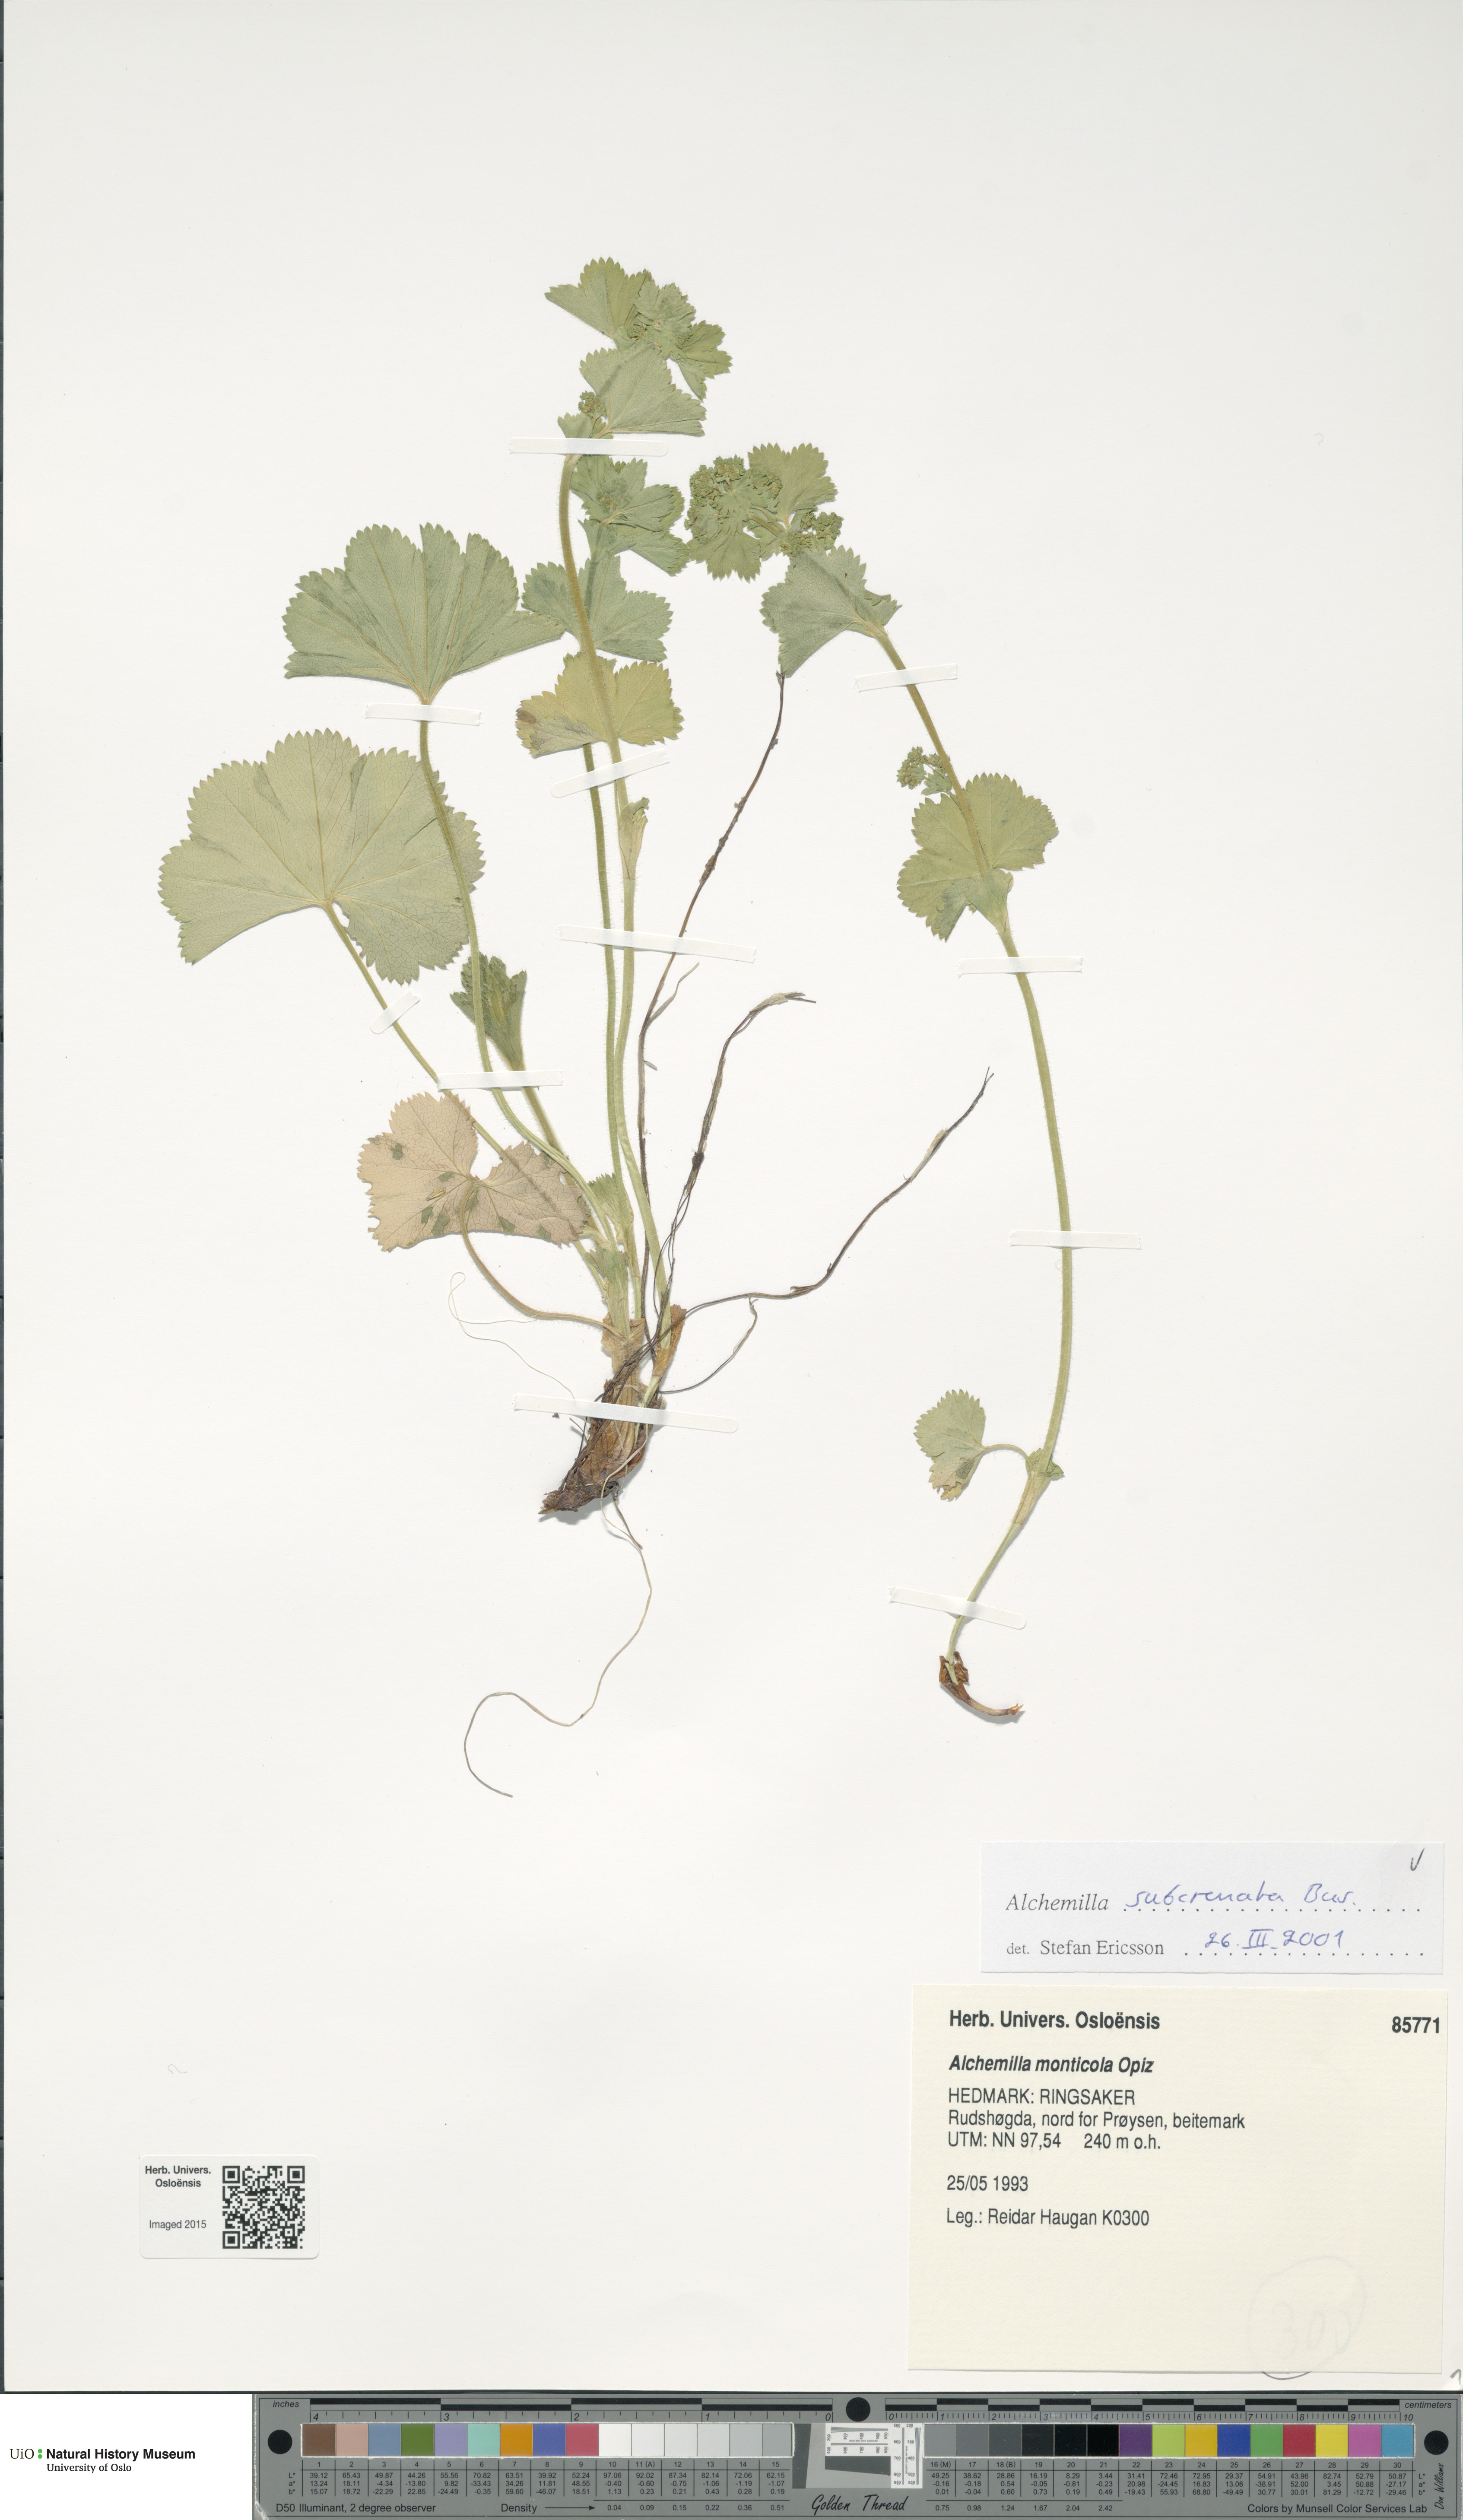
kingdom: Plantae
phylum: Tracheophyta
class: Magnoliopsida
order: Rosales
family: Rosaceae
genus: Alchemilla
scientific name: Alchemilla subcrenata
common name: Broadtooth lady's mantle
